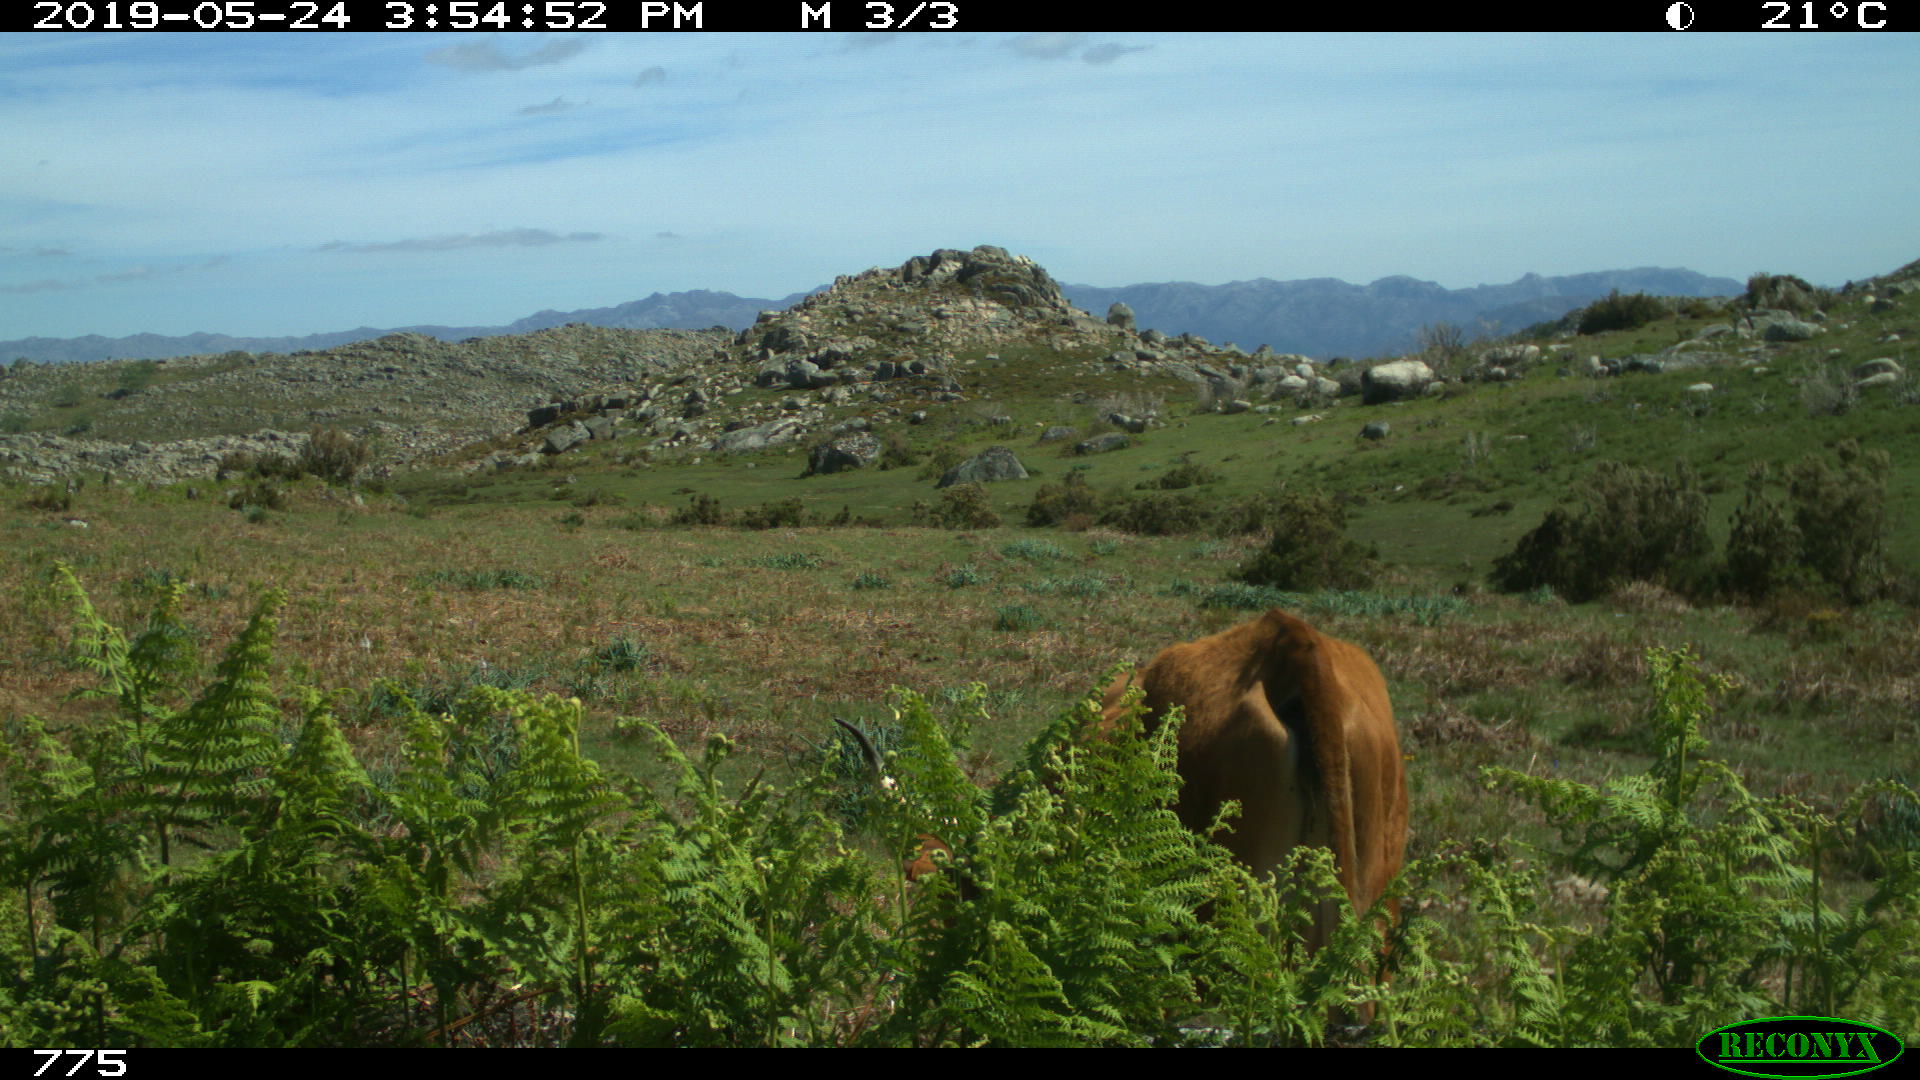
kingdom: Animalia
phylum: Chordata
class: Mammalia
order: Artiodactyla
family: Bovidae
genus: Bos
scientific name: Bos taurus
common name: Domesticated cattle
